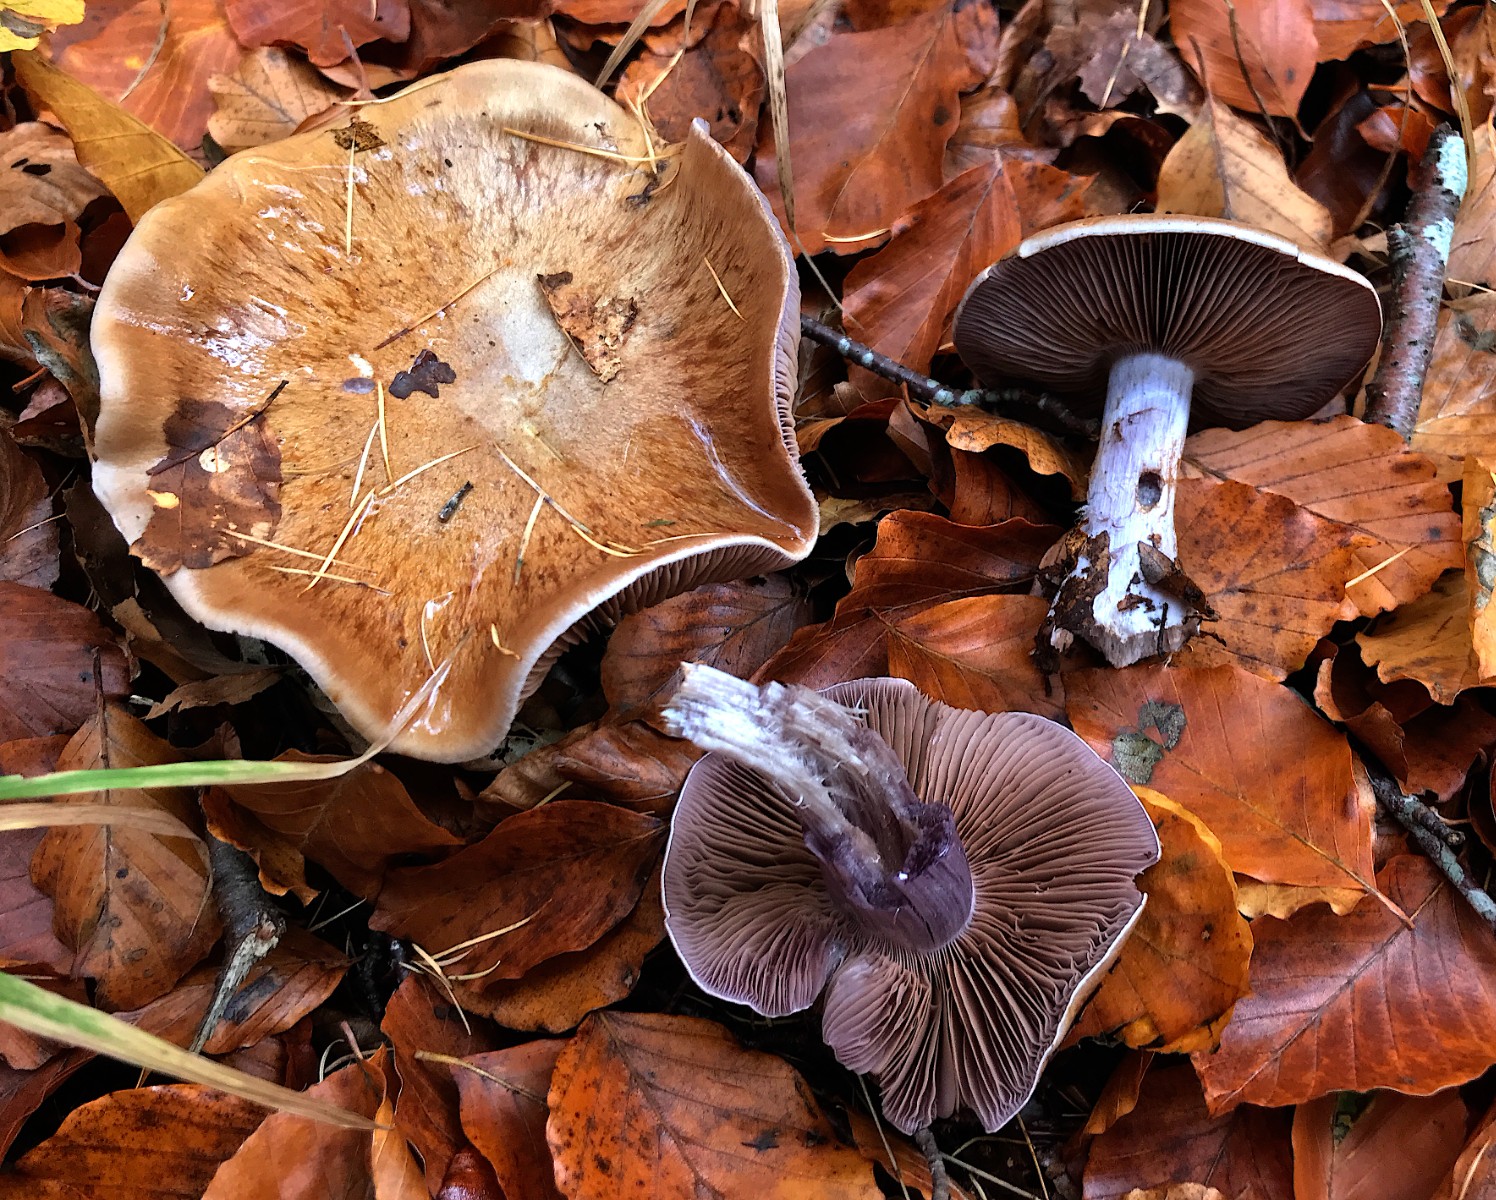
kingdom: Fungi
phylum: Basidiomycota
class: Agaricomycetes
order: Agaricales
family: Cortinariaceae
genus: Thaxterogaster
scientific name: Thaxterogaster subpurpurascens
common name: mørkblånende slørhat
